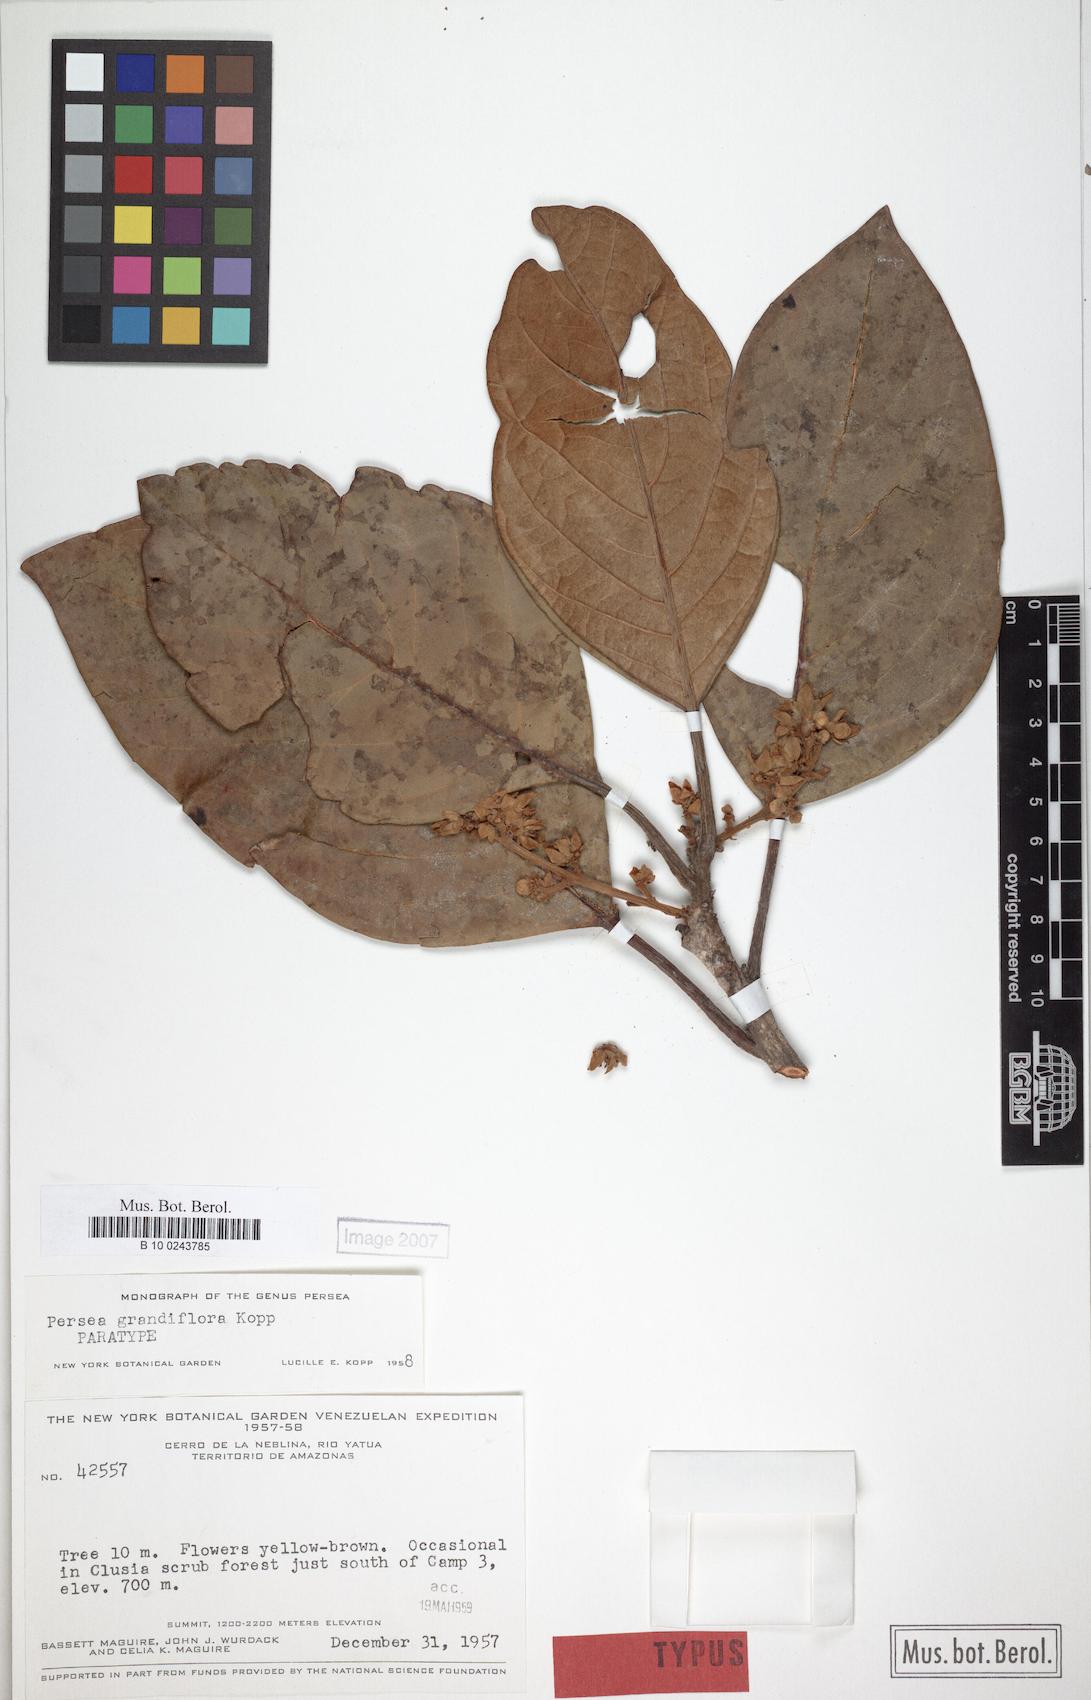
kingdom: Plantae
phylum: Tracheophyta
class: Magnoliopsida
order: Laurales
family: Lauraceae
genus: Persea
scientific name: Persea grandiflora
